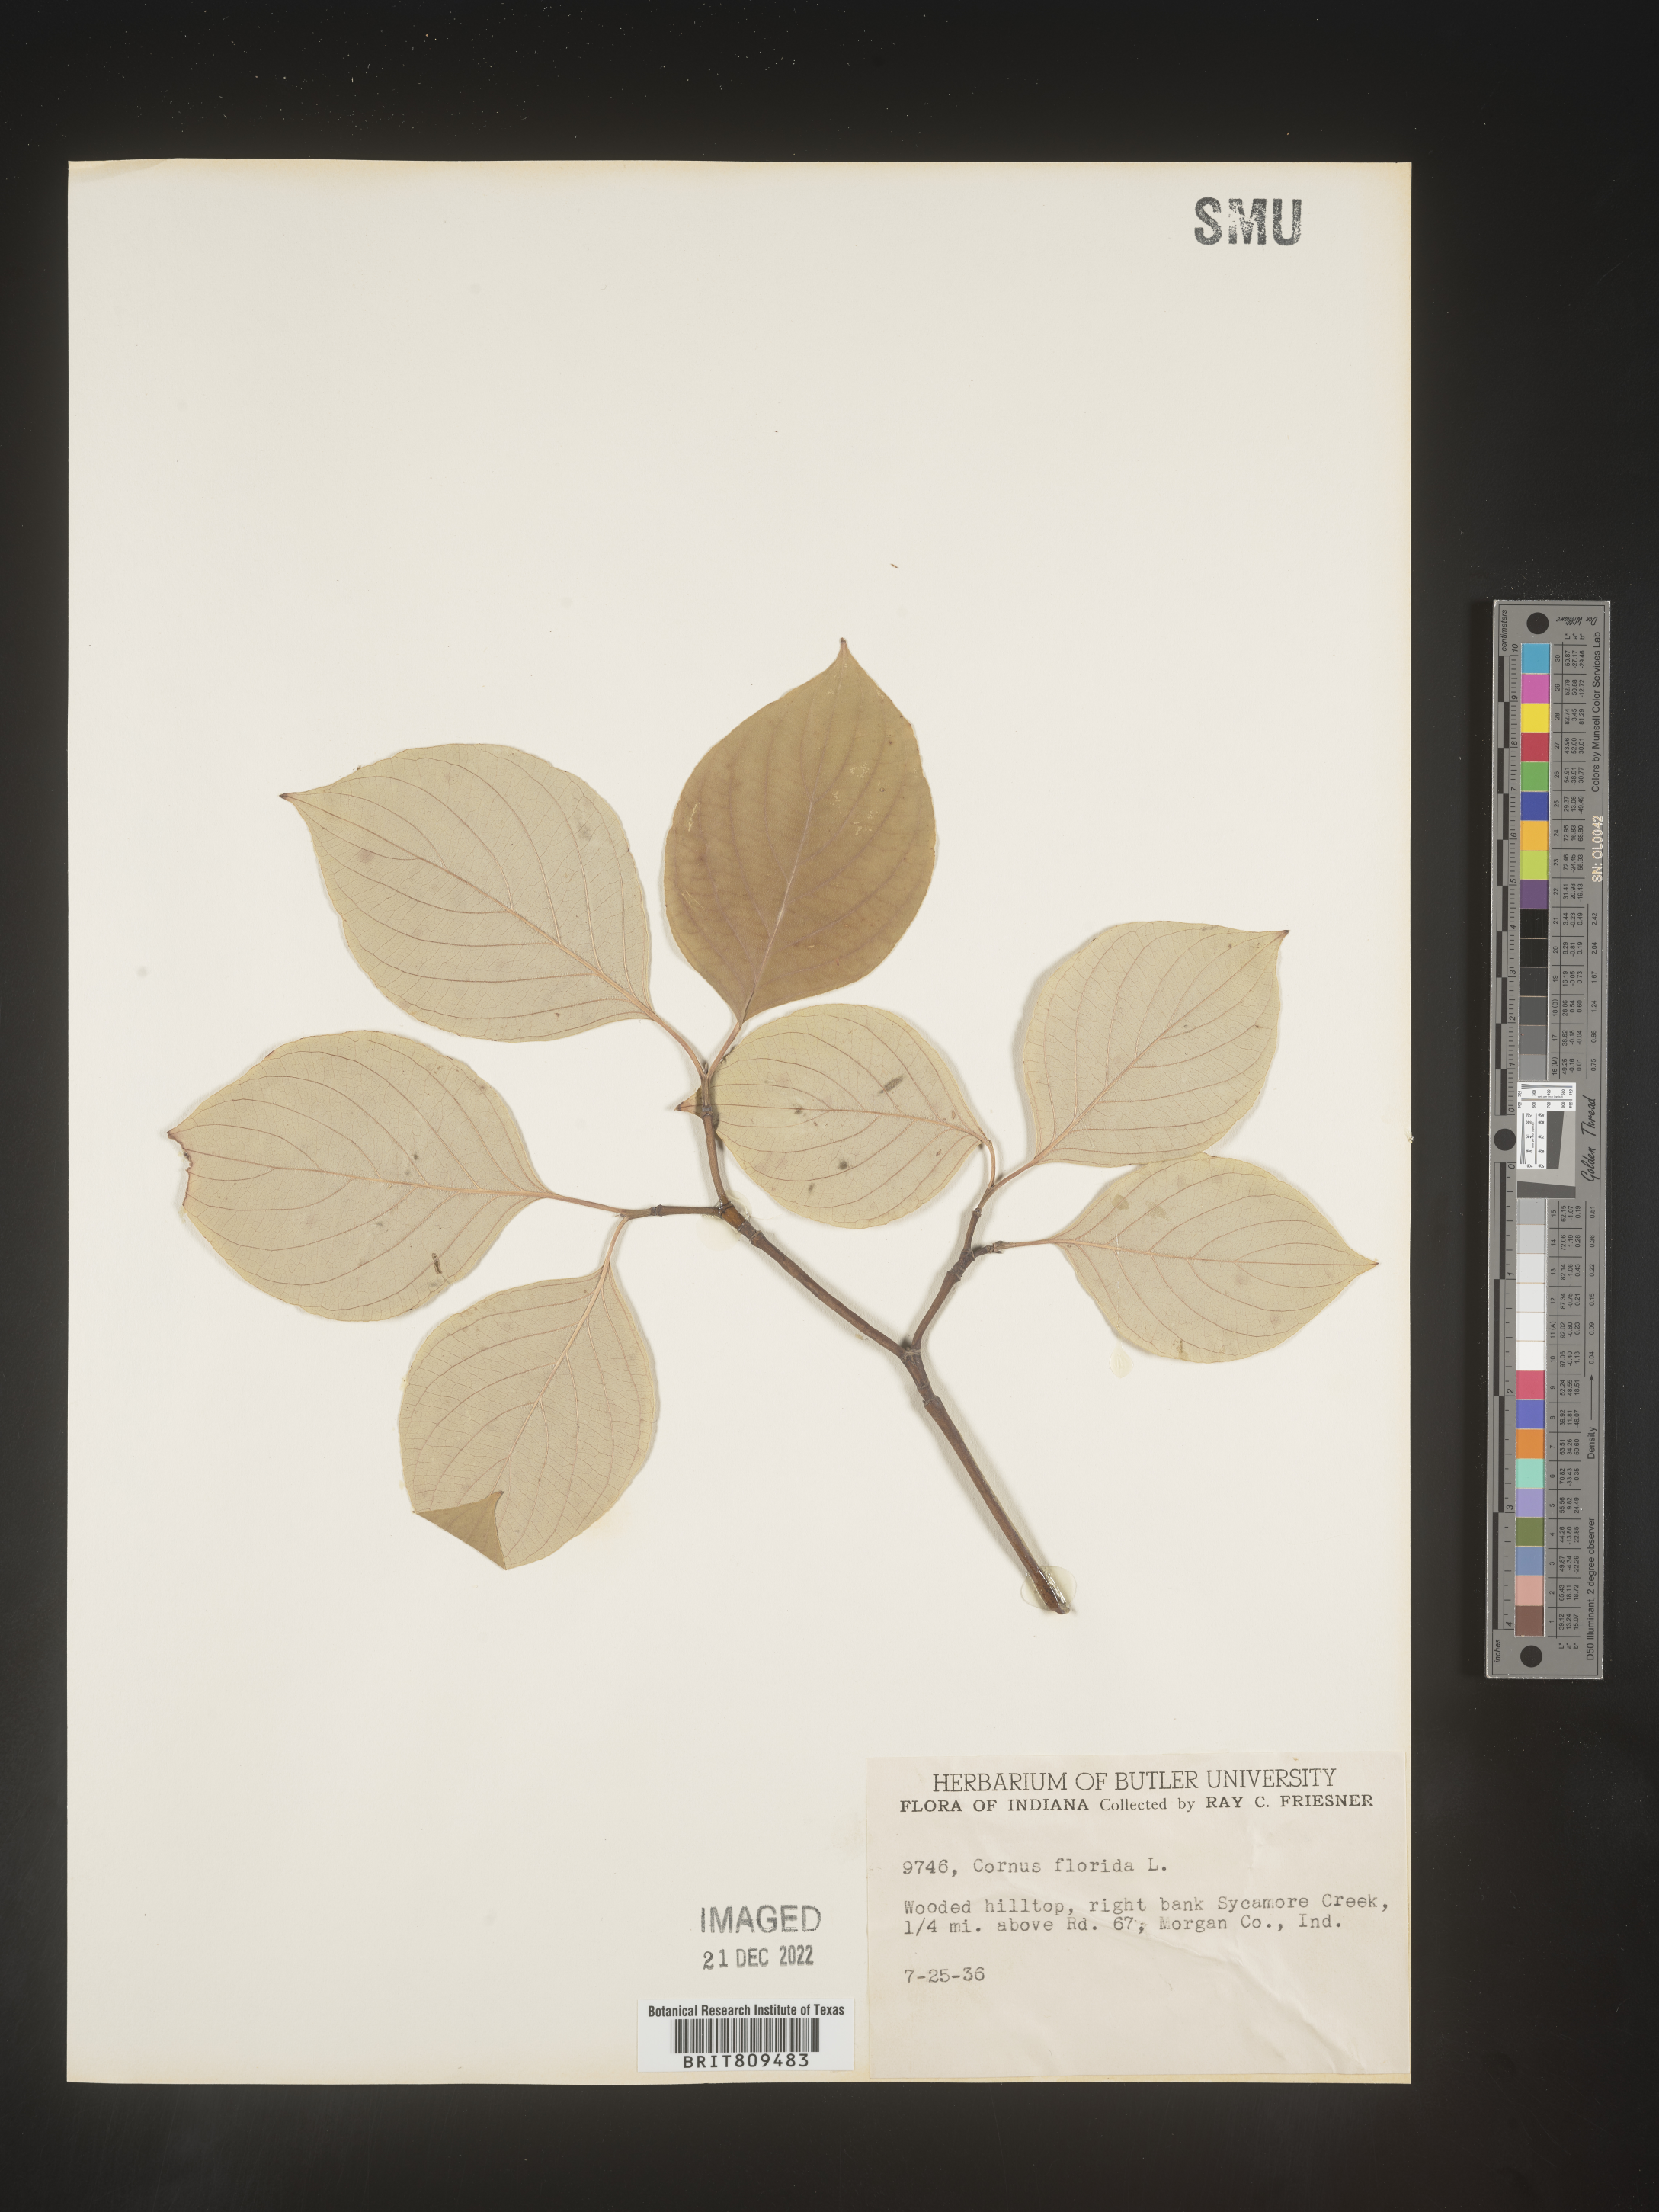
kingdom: Plantae
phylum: Tracheophyta
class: Magnoliopsida
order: Cornales
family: Cornaceae
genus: Cornus
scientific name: Cornus florida
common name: Flowering dogwood
